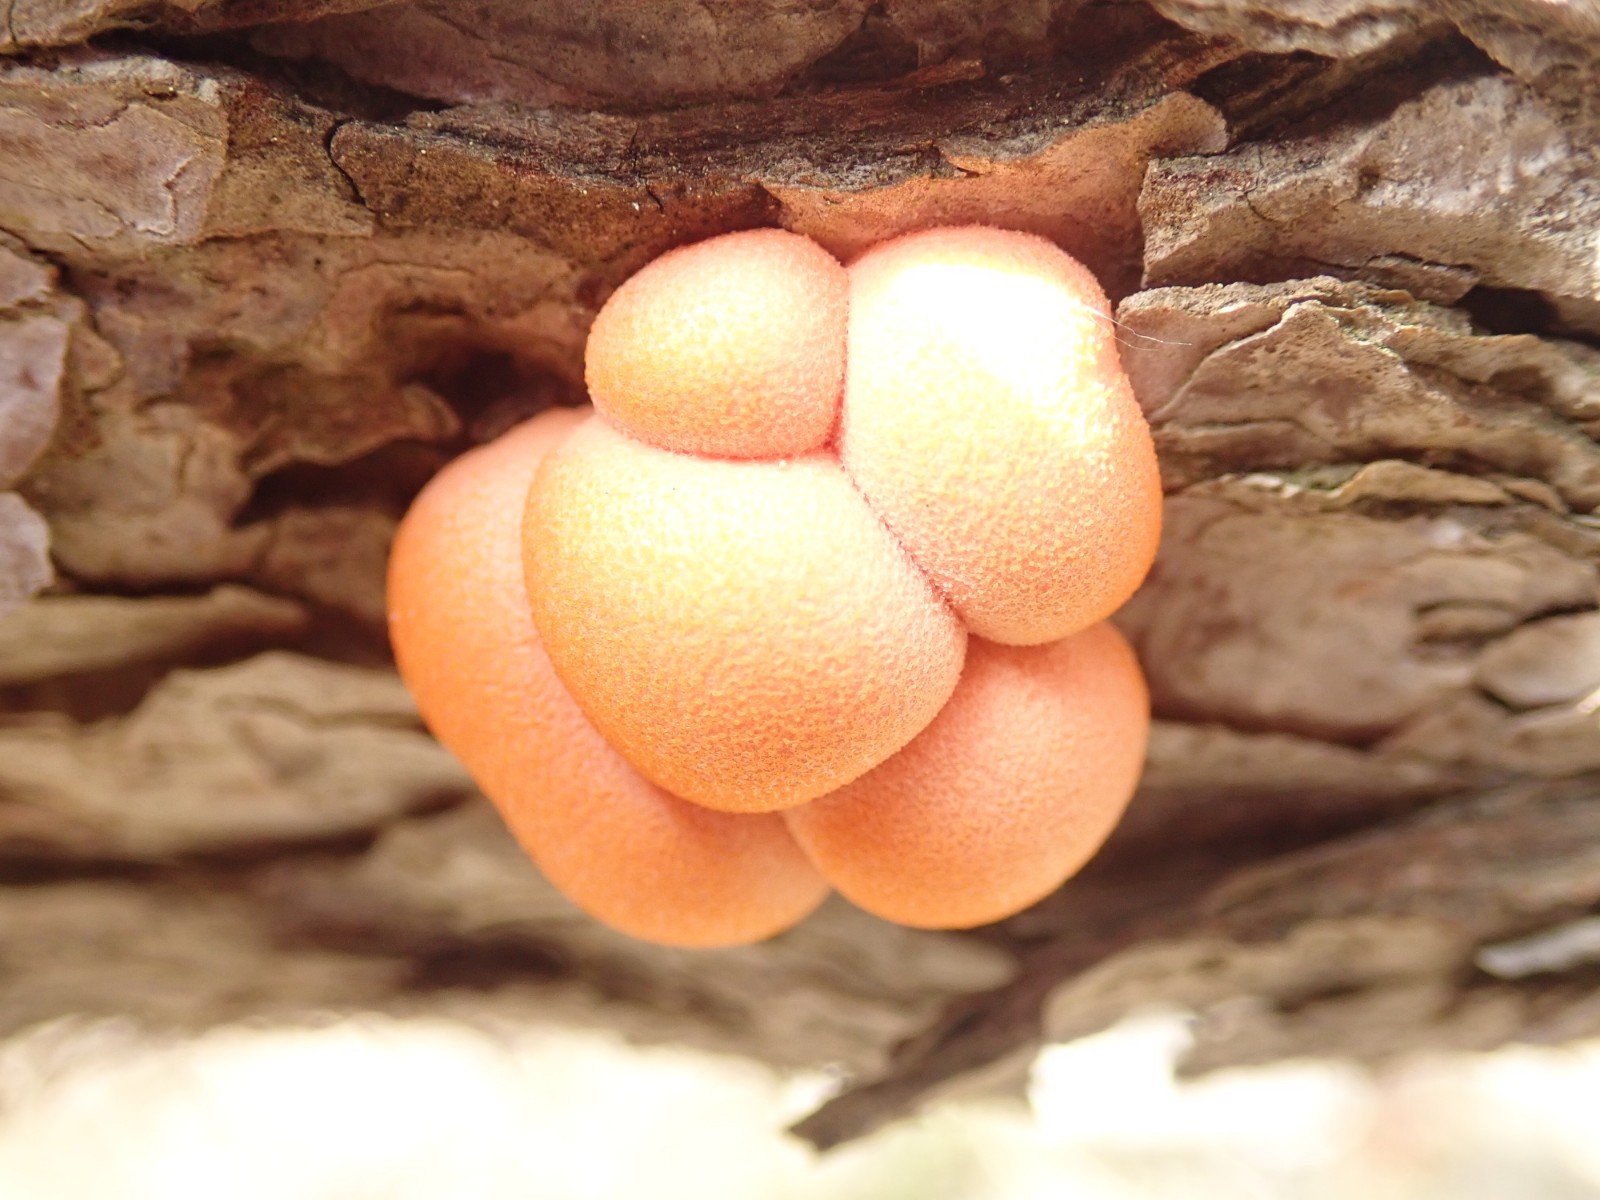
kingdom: Protozoa
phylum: Mycetozoa
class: Myxomycetes
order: Cribrariales
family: Tubiferaceae
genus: Lycogala
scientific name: Lycogala epidendrum
